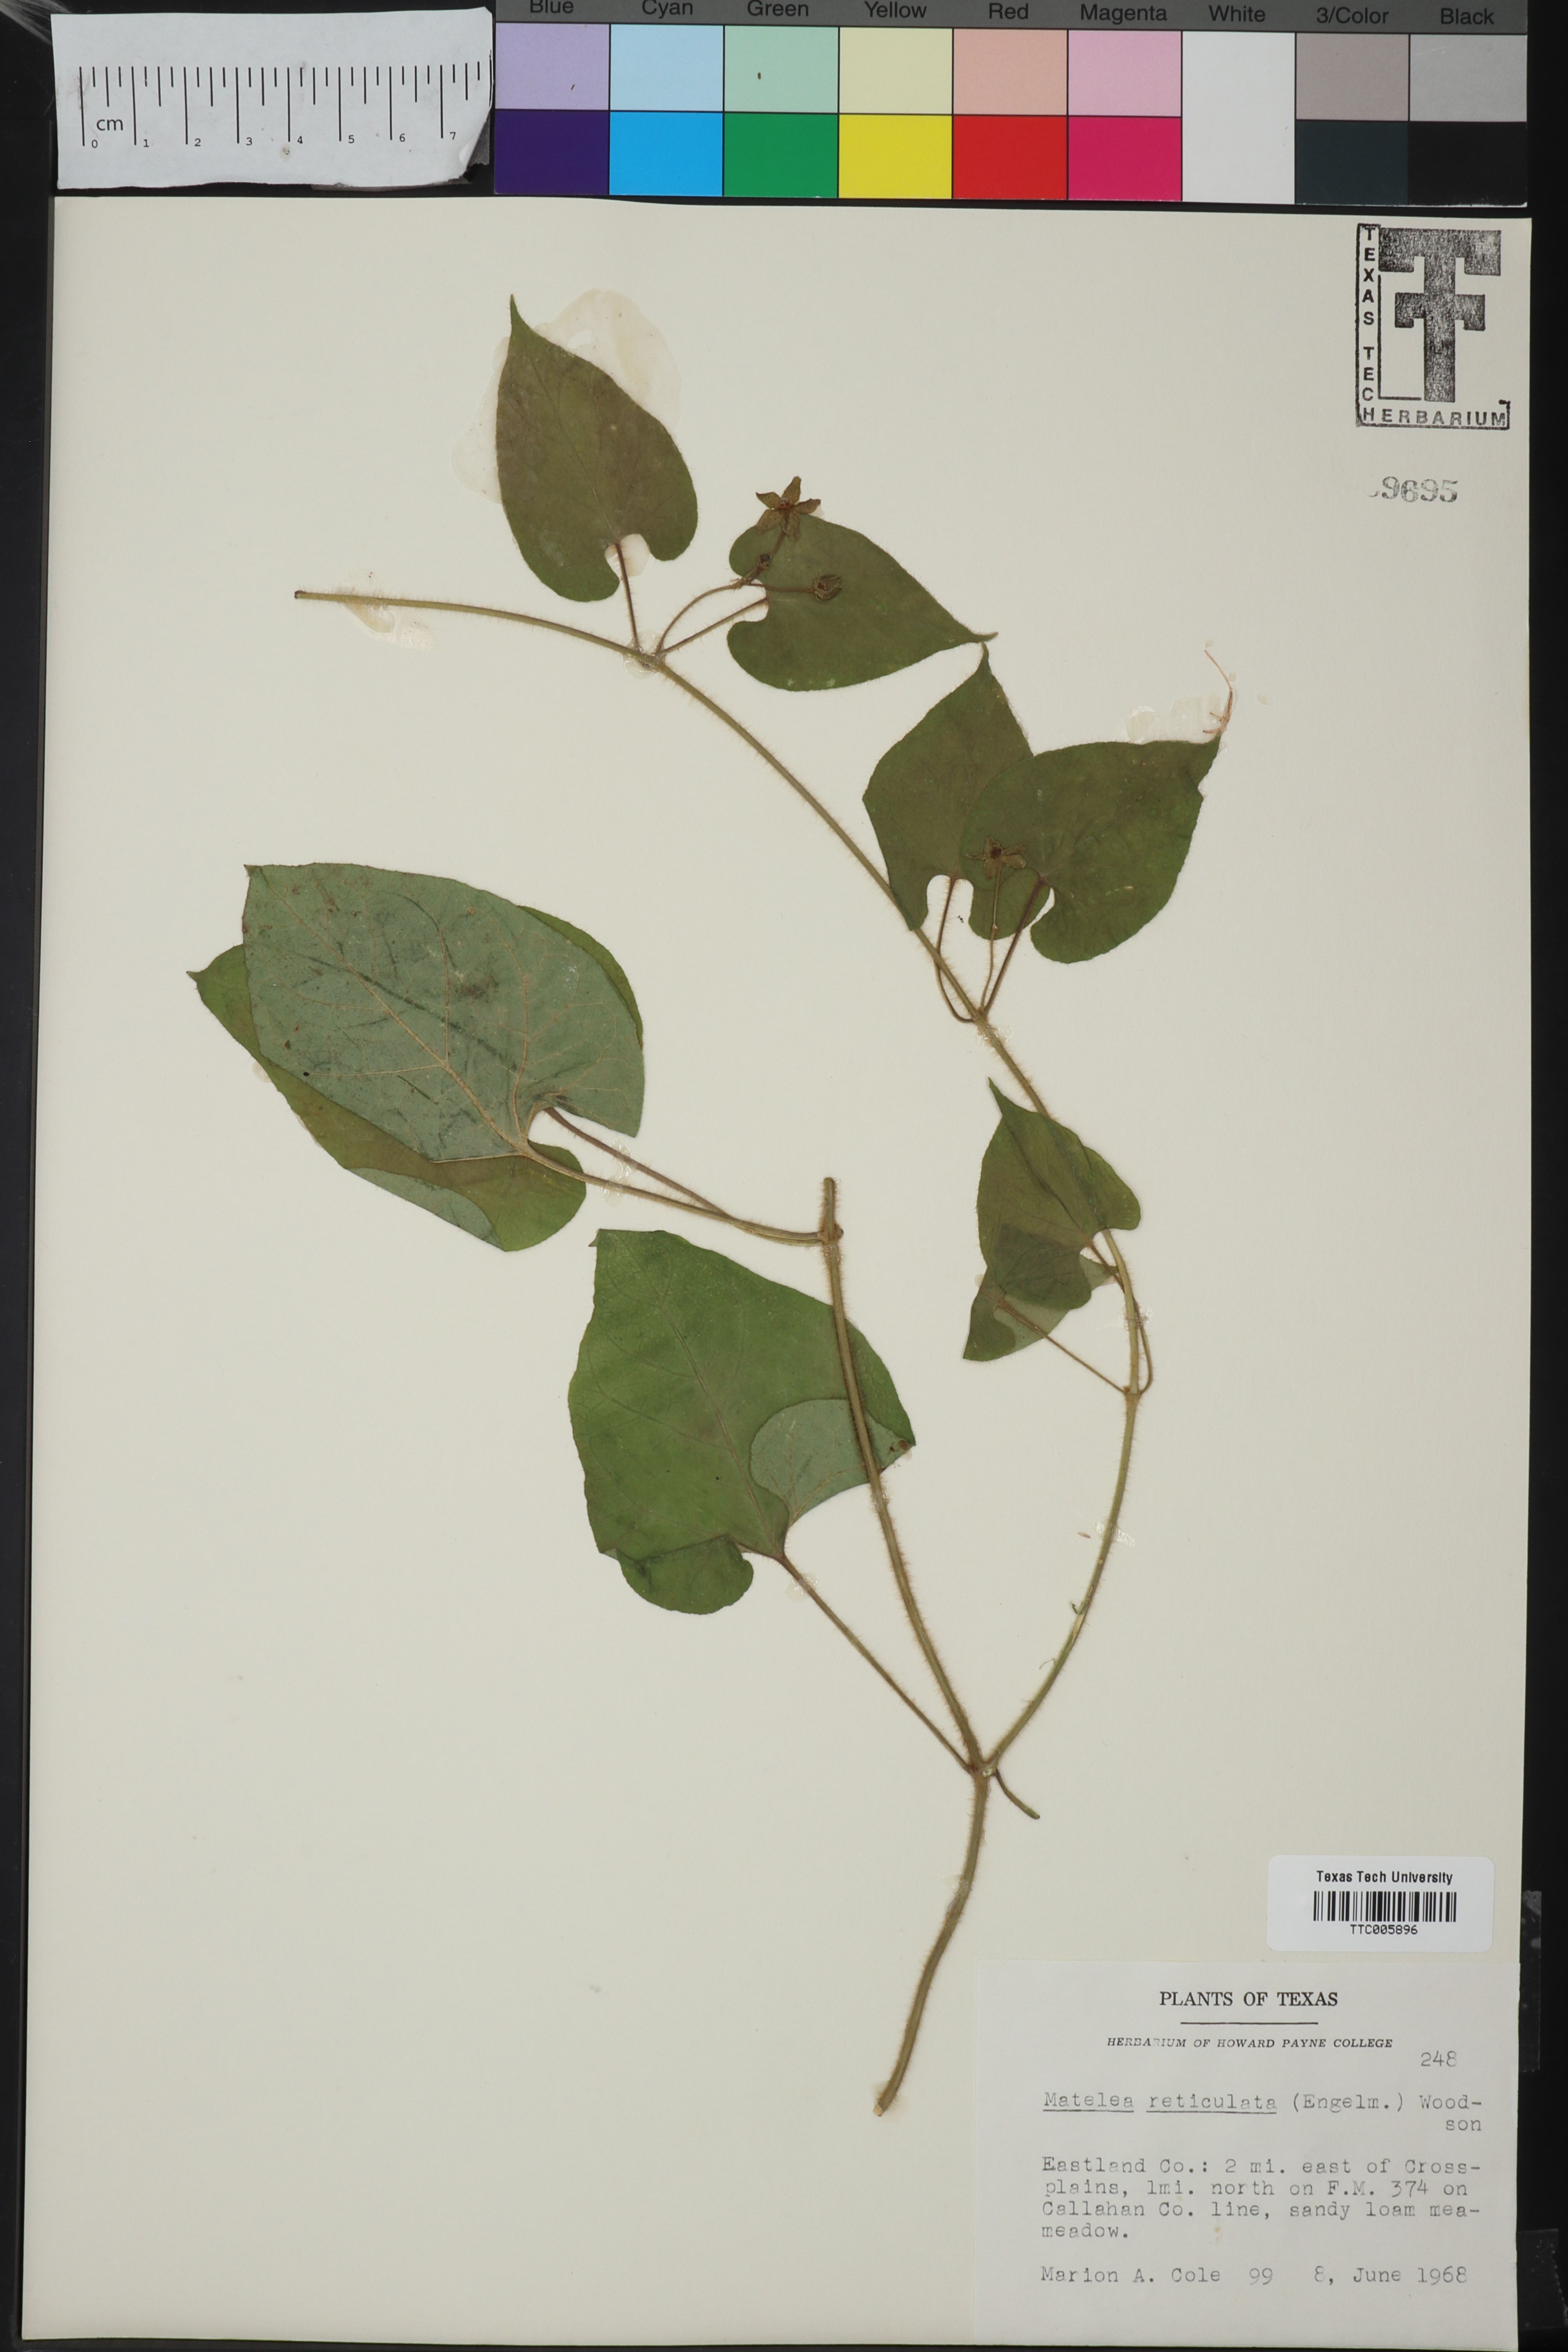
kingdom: Plantae
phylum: Tracheophyta
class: Magnoliopsida
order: Gentianales
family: Apocynaceae
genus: Dictyanthus
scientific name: Dictyanthus reticulatus
